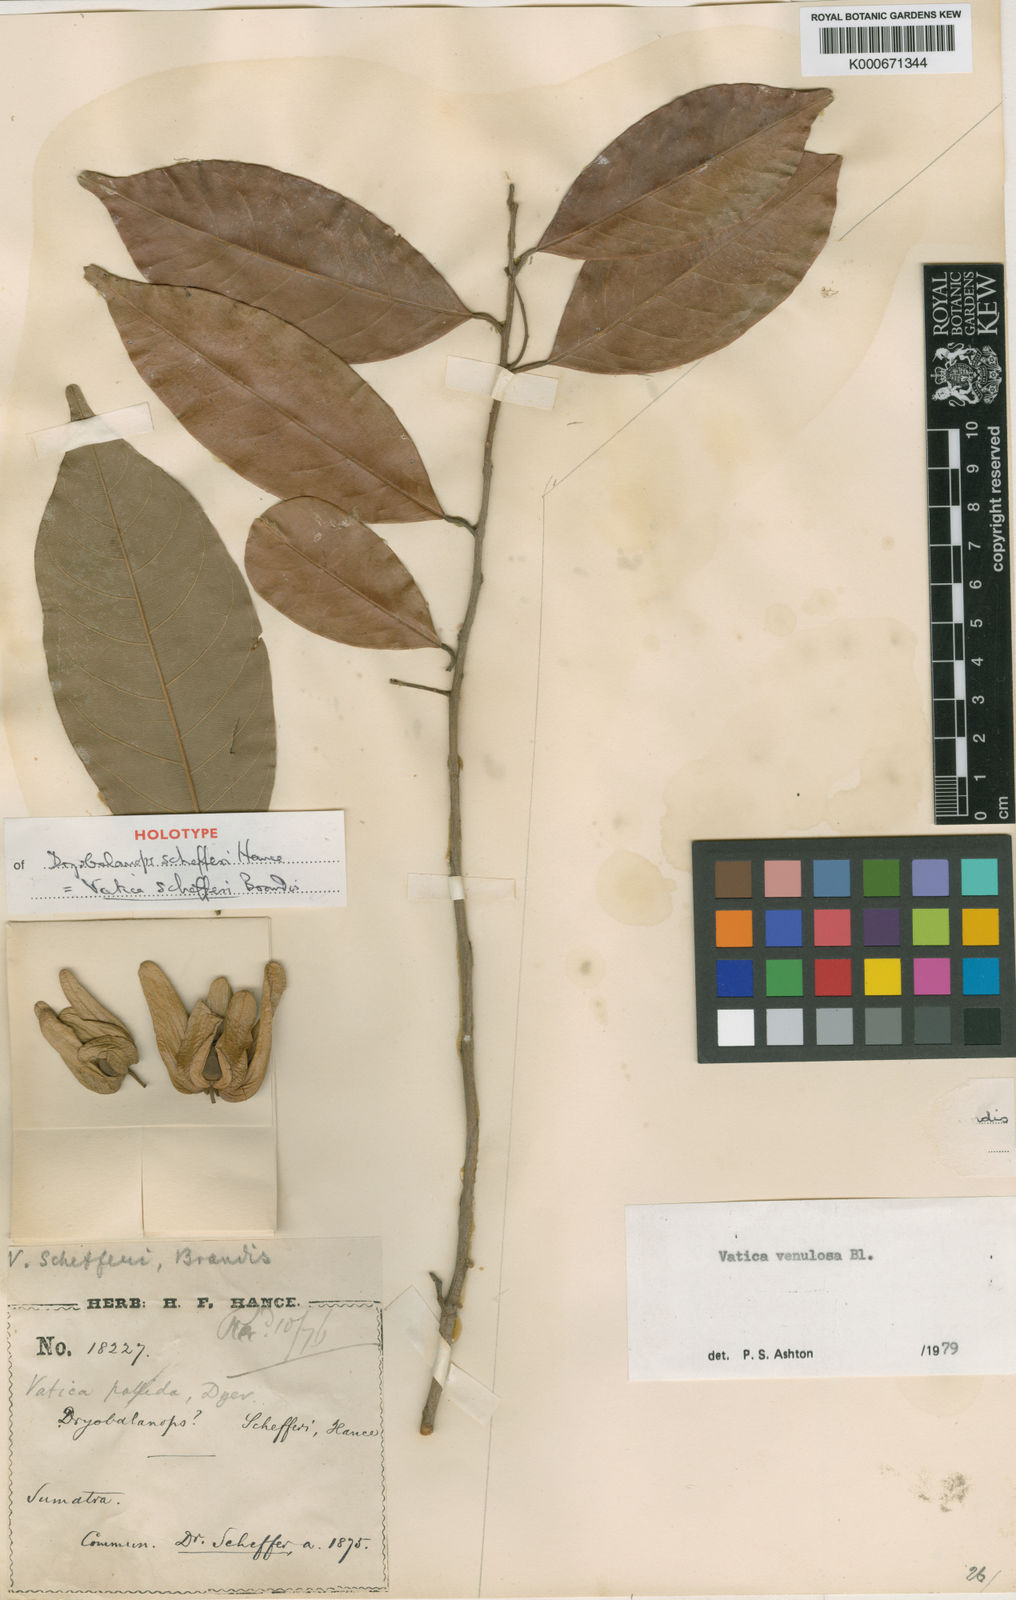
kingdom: Plantae
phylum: Tracheophyta
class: Magnoliopsida
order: Malvales
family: Dipterocarpaceae
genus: Vatica
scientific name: Vatica venulosa
